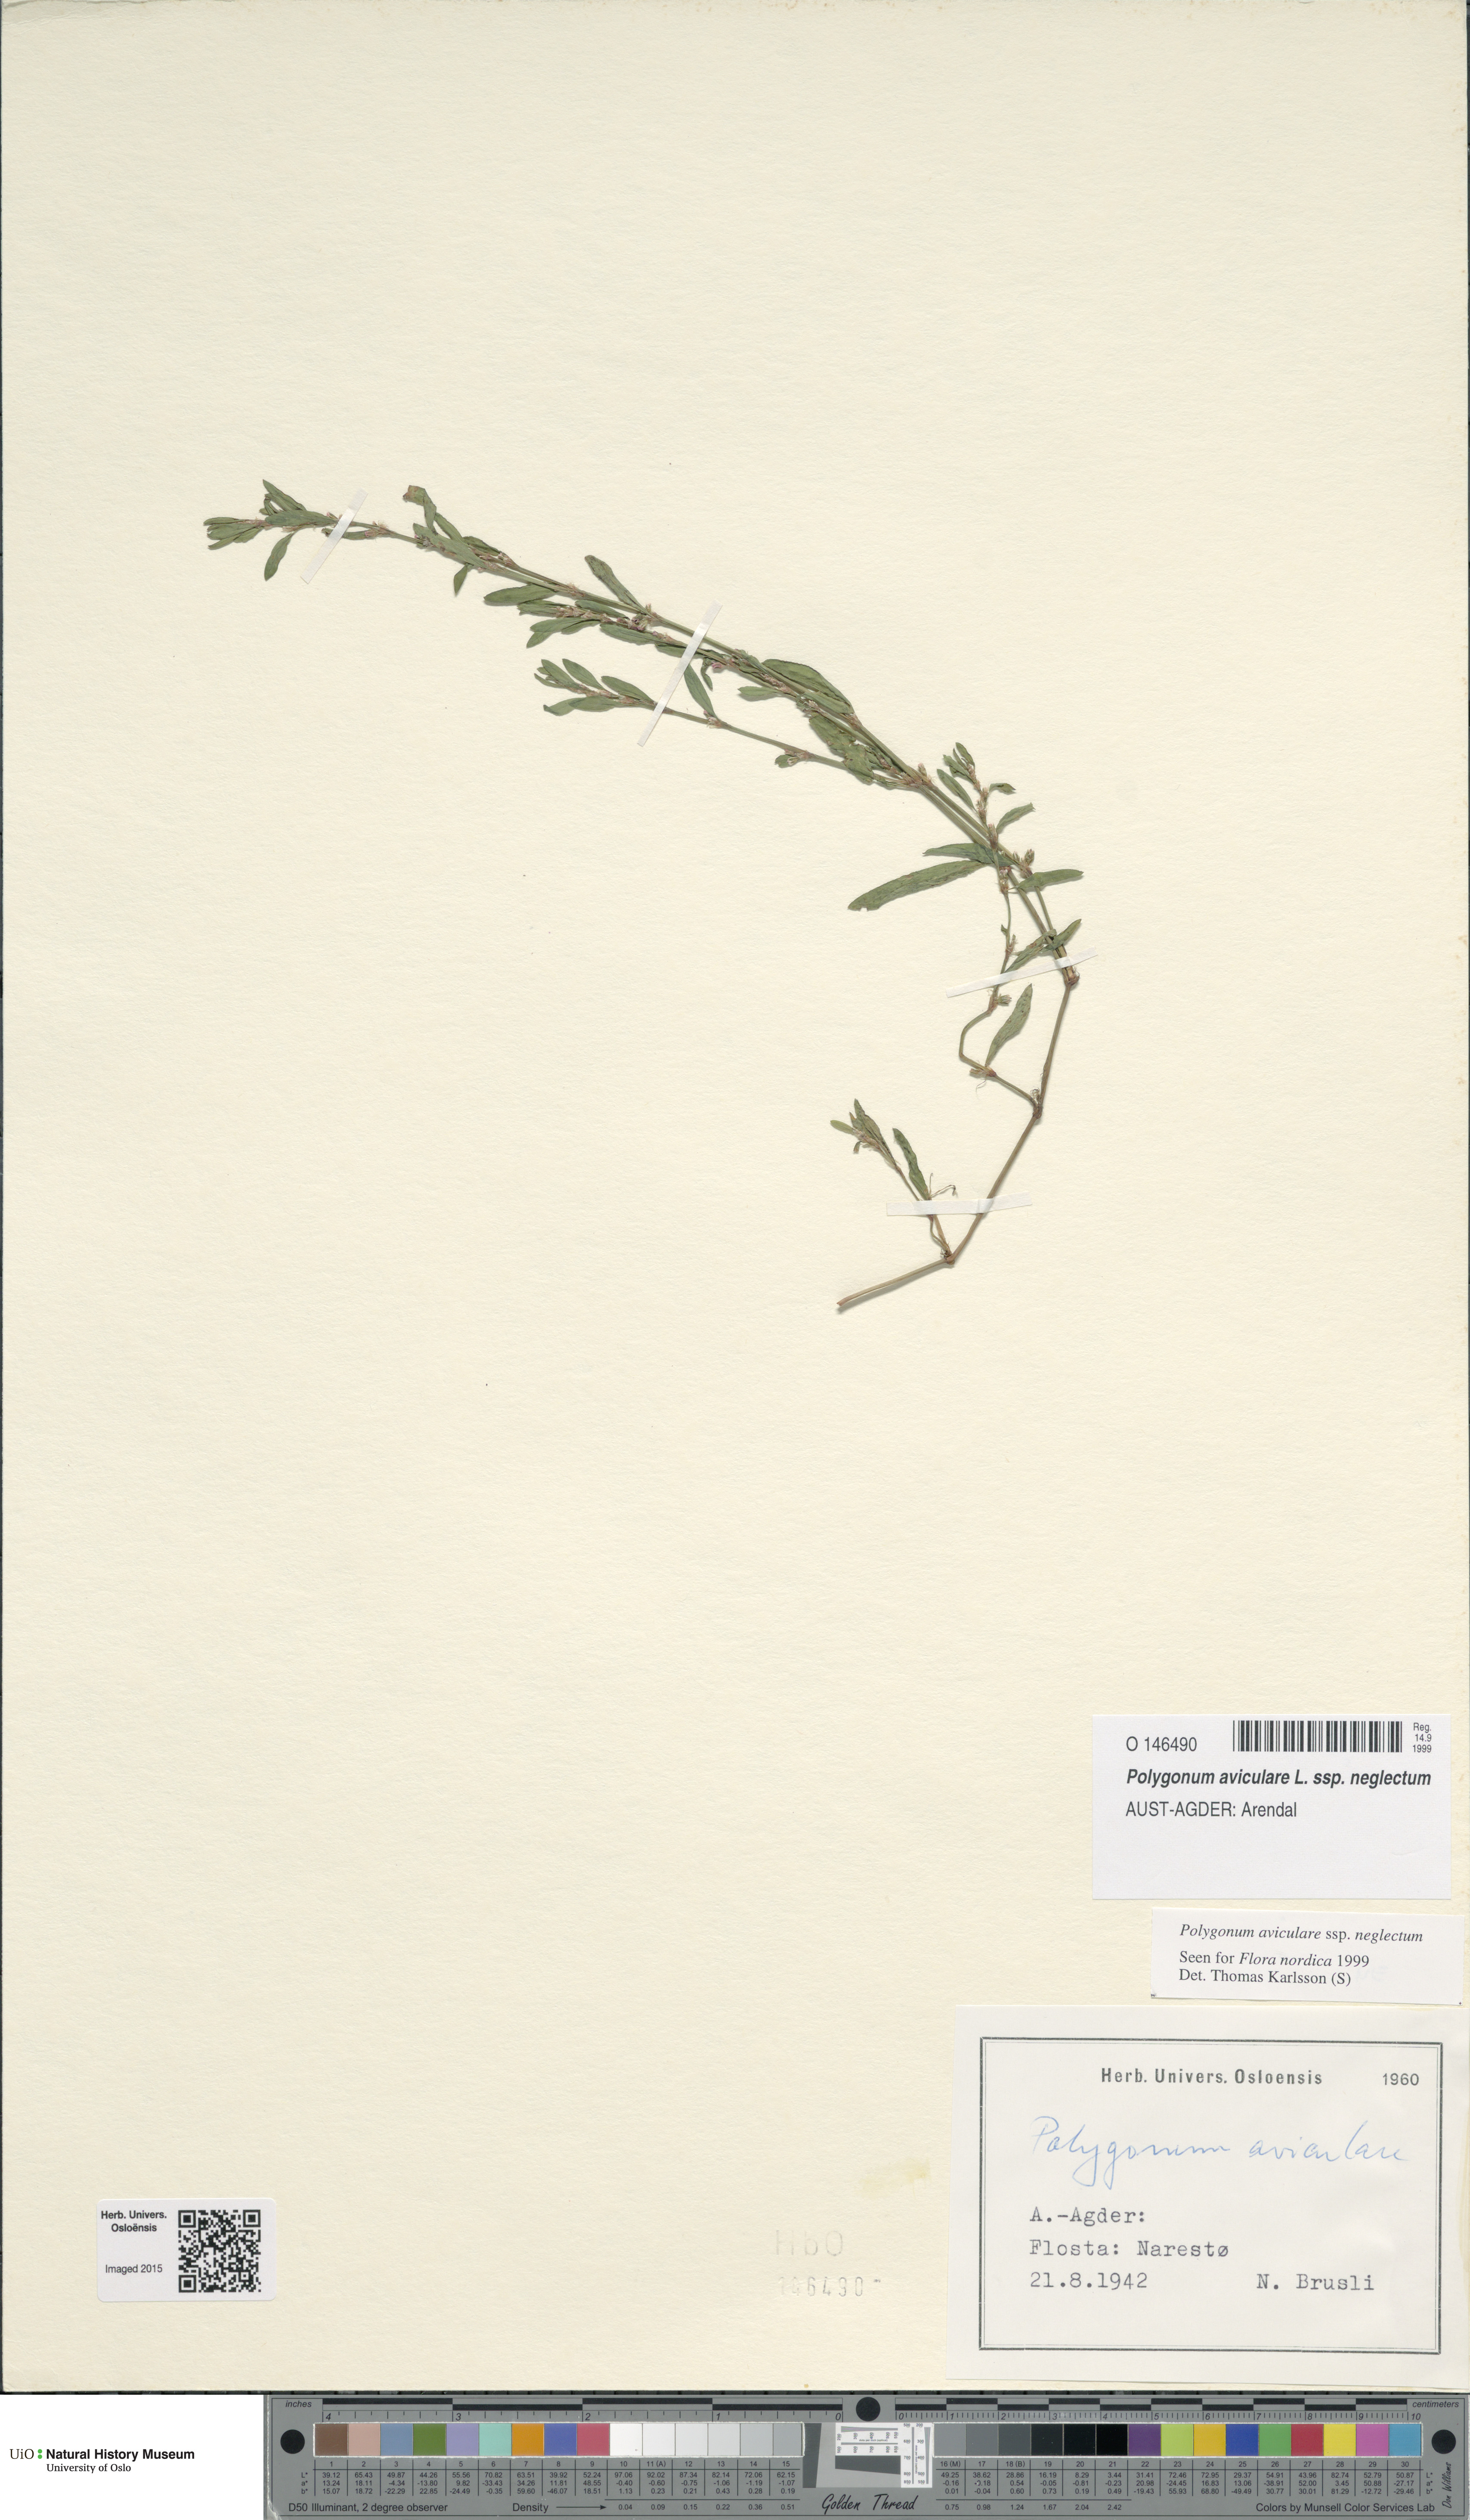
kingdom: Plantae
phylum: Tracheophyta
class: Magnoliopsida
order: Caryophyllales
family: Polygonaceae
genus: Polygonum
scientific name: Polygonum aviculare
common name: Prostrate knotweed
